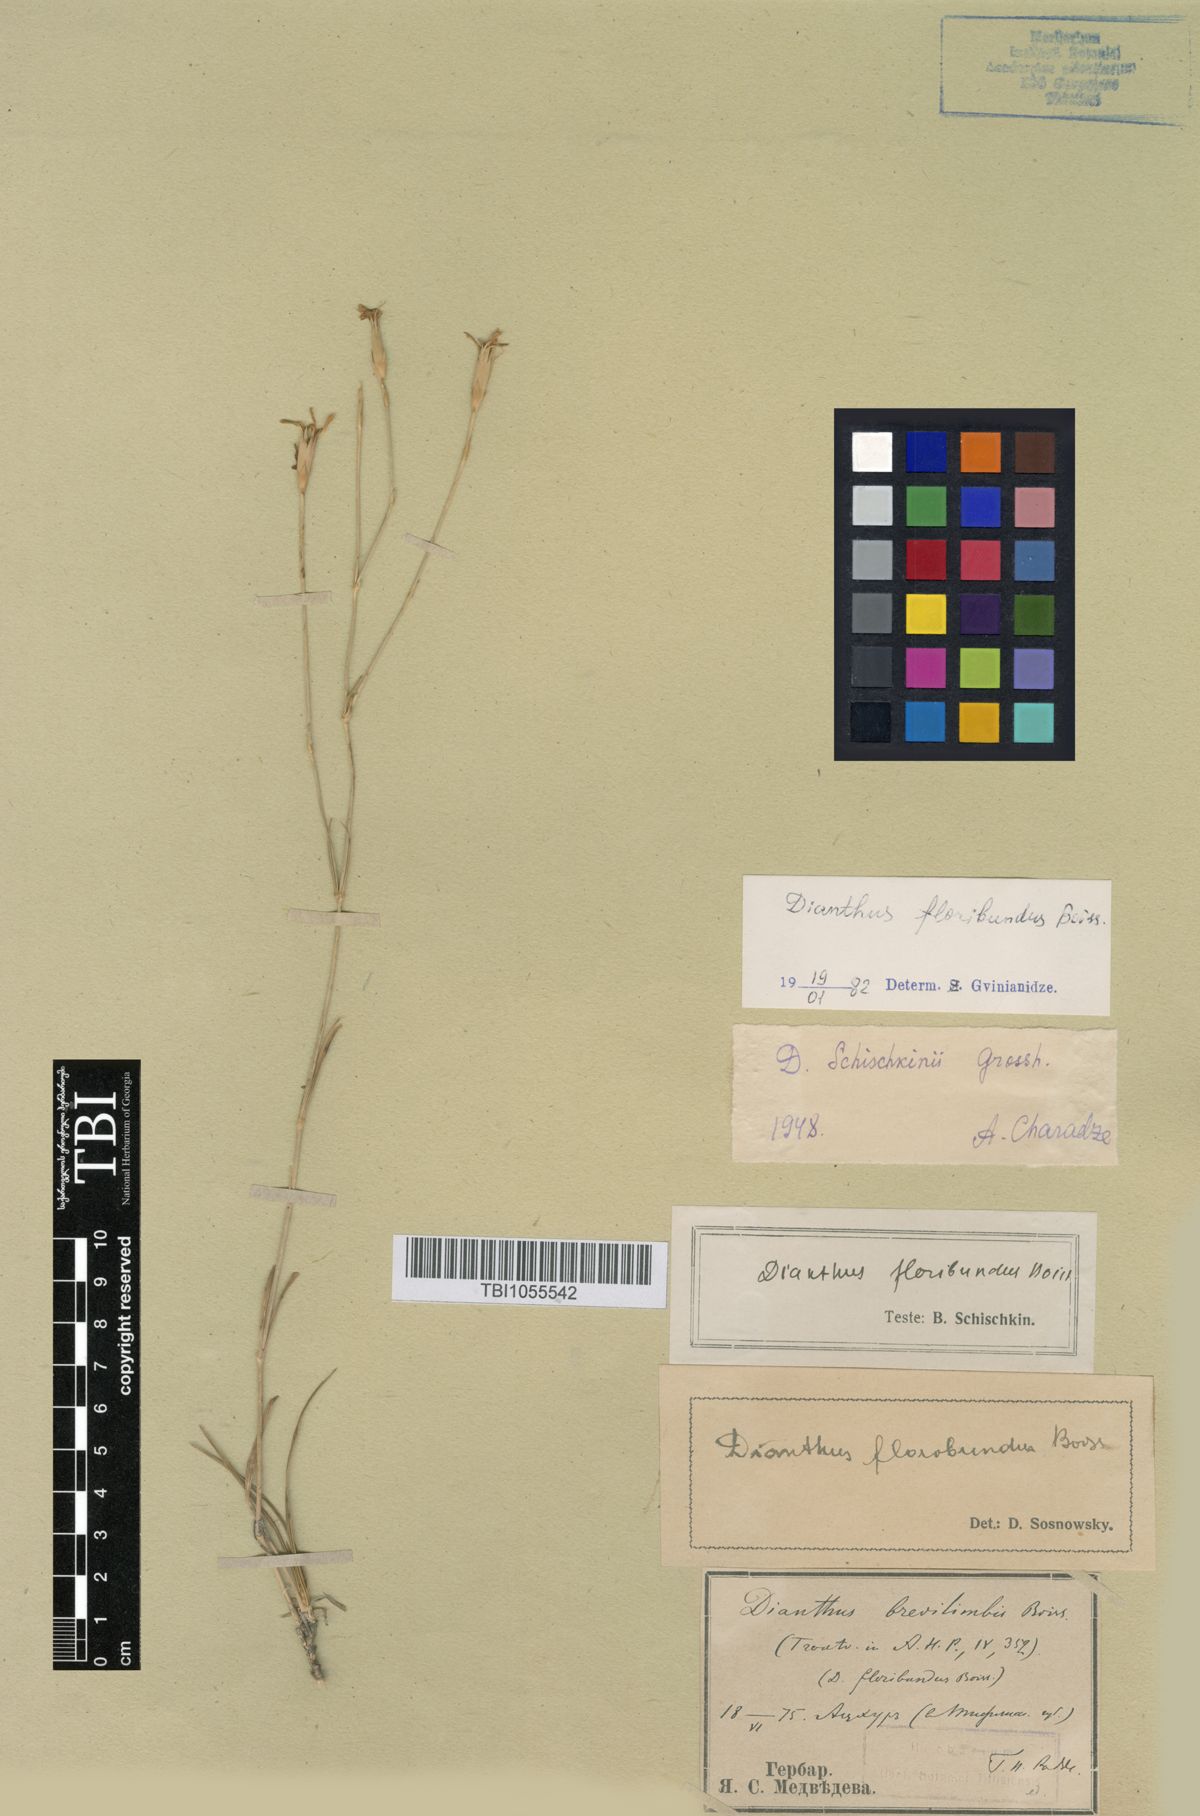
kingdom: Plantae
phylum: Tracheophyta
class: Magnoliopsida
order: Caryophyllales
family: Caryophyllaceae
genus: Dianthus
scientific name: Dianthus floribundus
